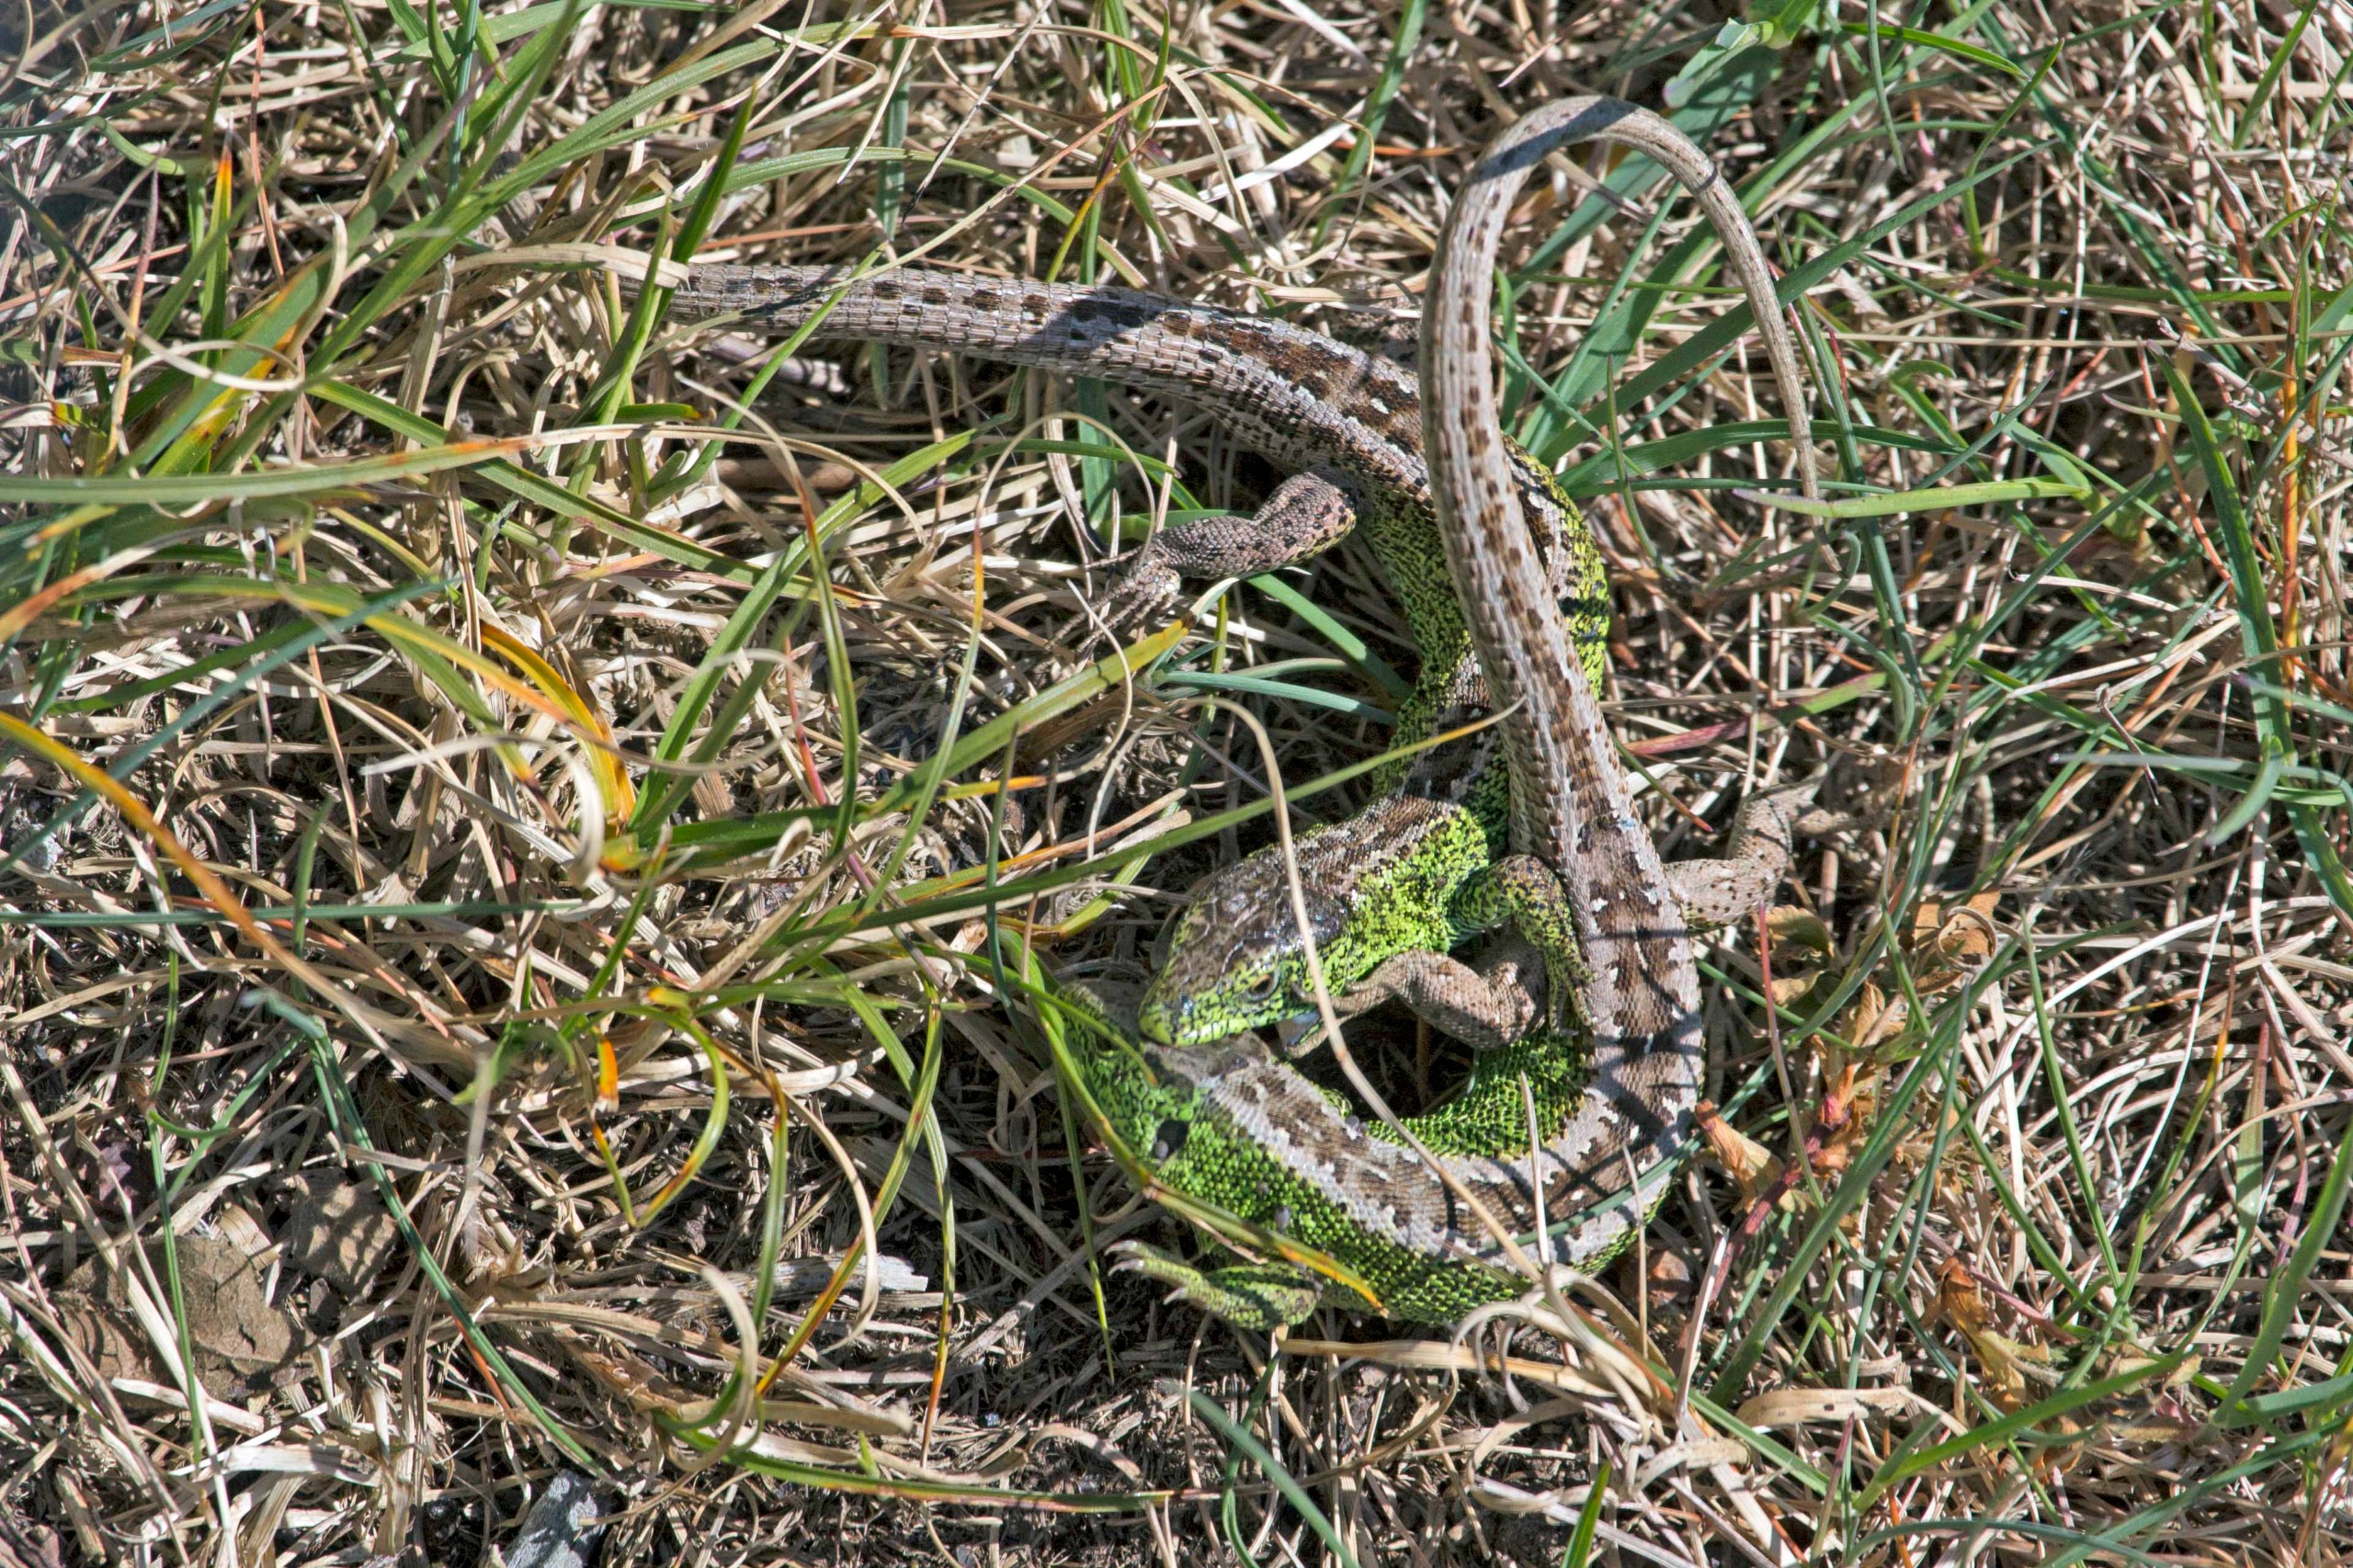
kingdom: Animalia
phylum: Chordata
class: Squamata
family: Lacertidae
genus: Lacerta
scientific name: Lacerta agilis
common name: Markfirben
